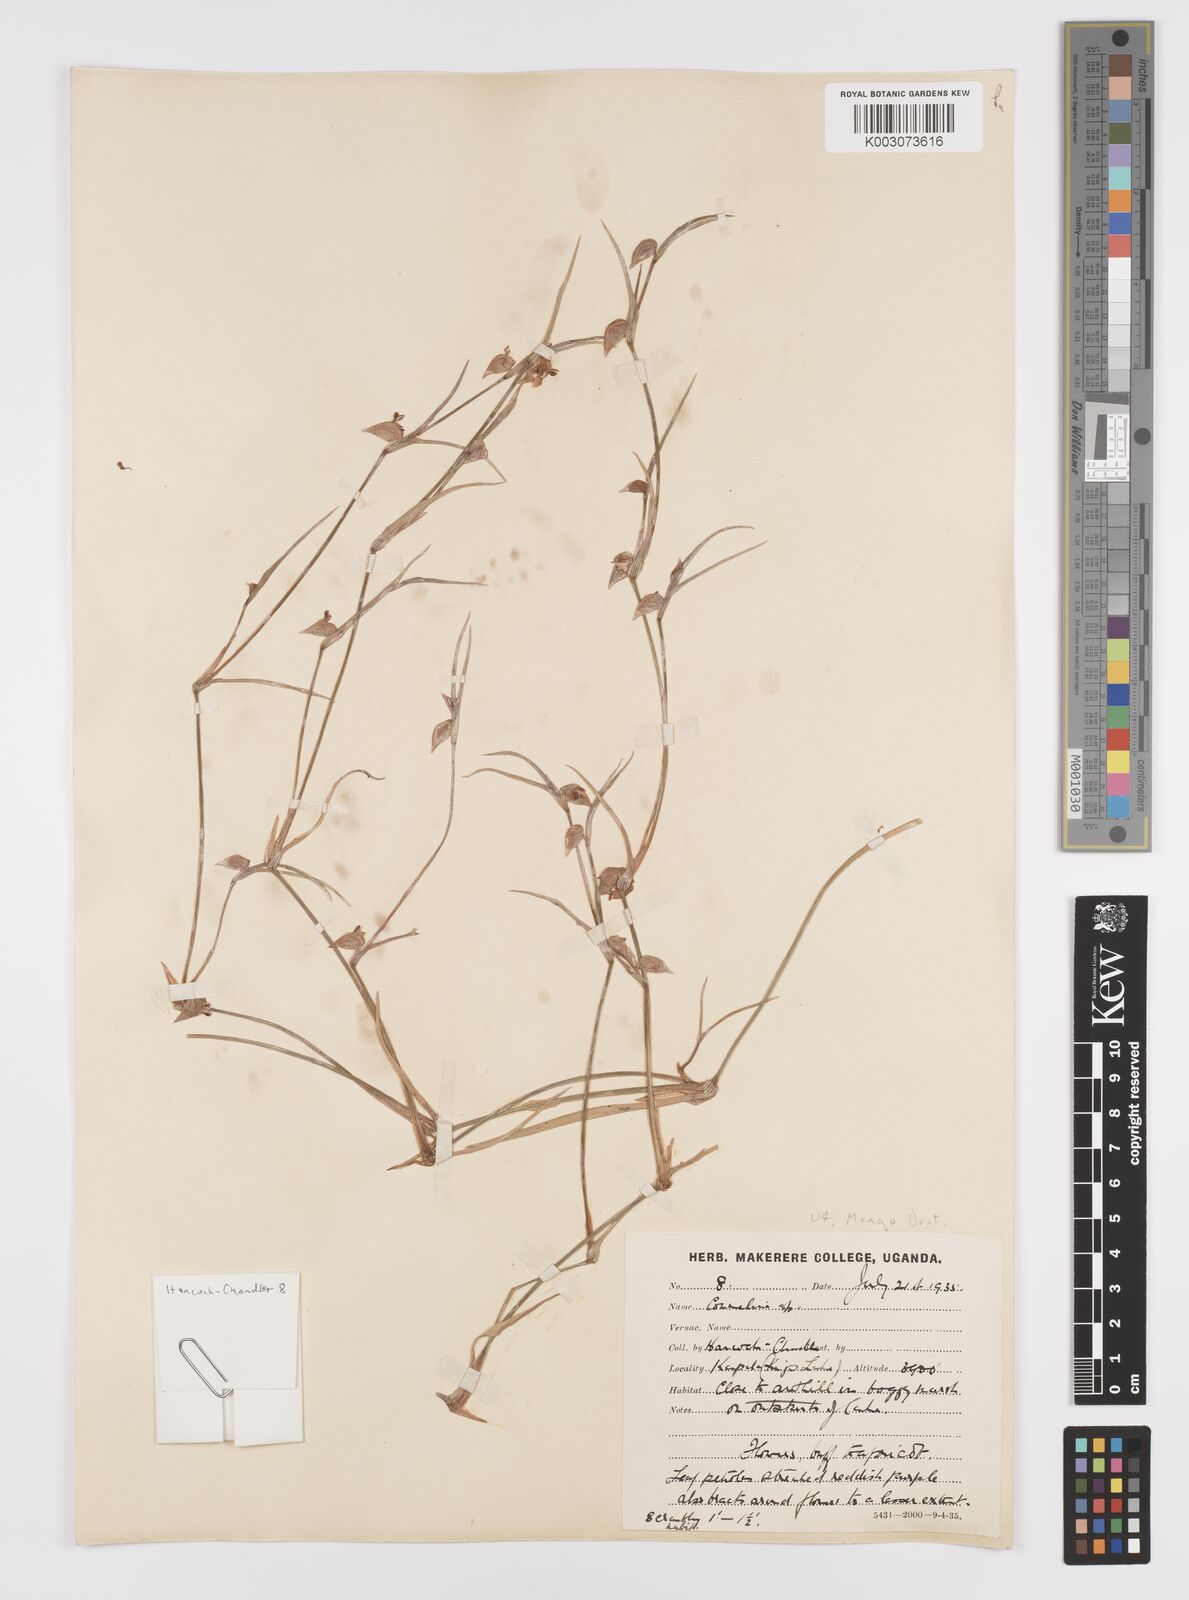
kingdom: Plantae
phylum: Tracheophyta
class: Liliopsida
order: Commelinales
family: Commelinaceae
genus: Commelina
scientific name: Commelina purpurea
